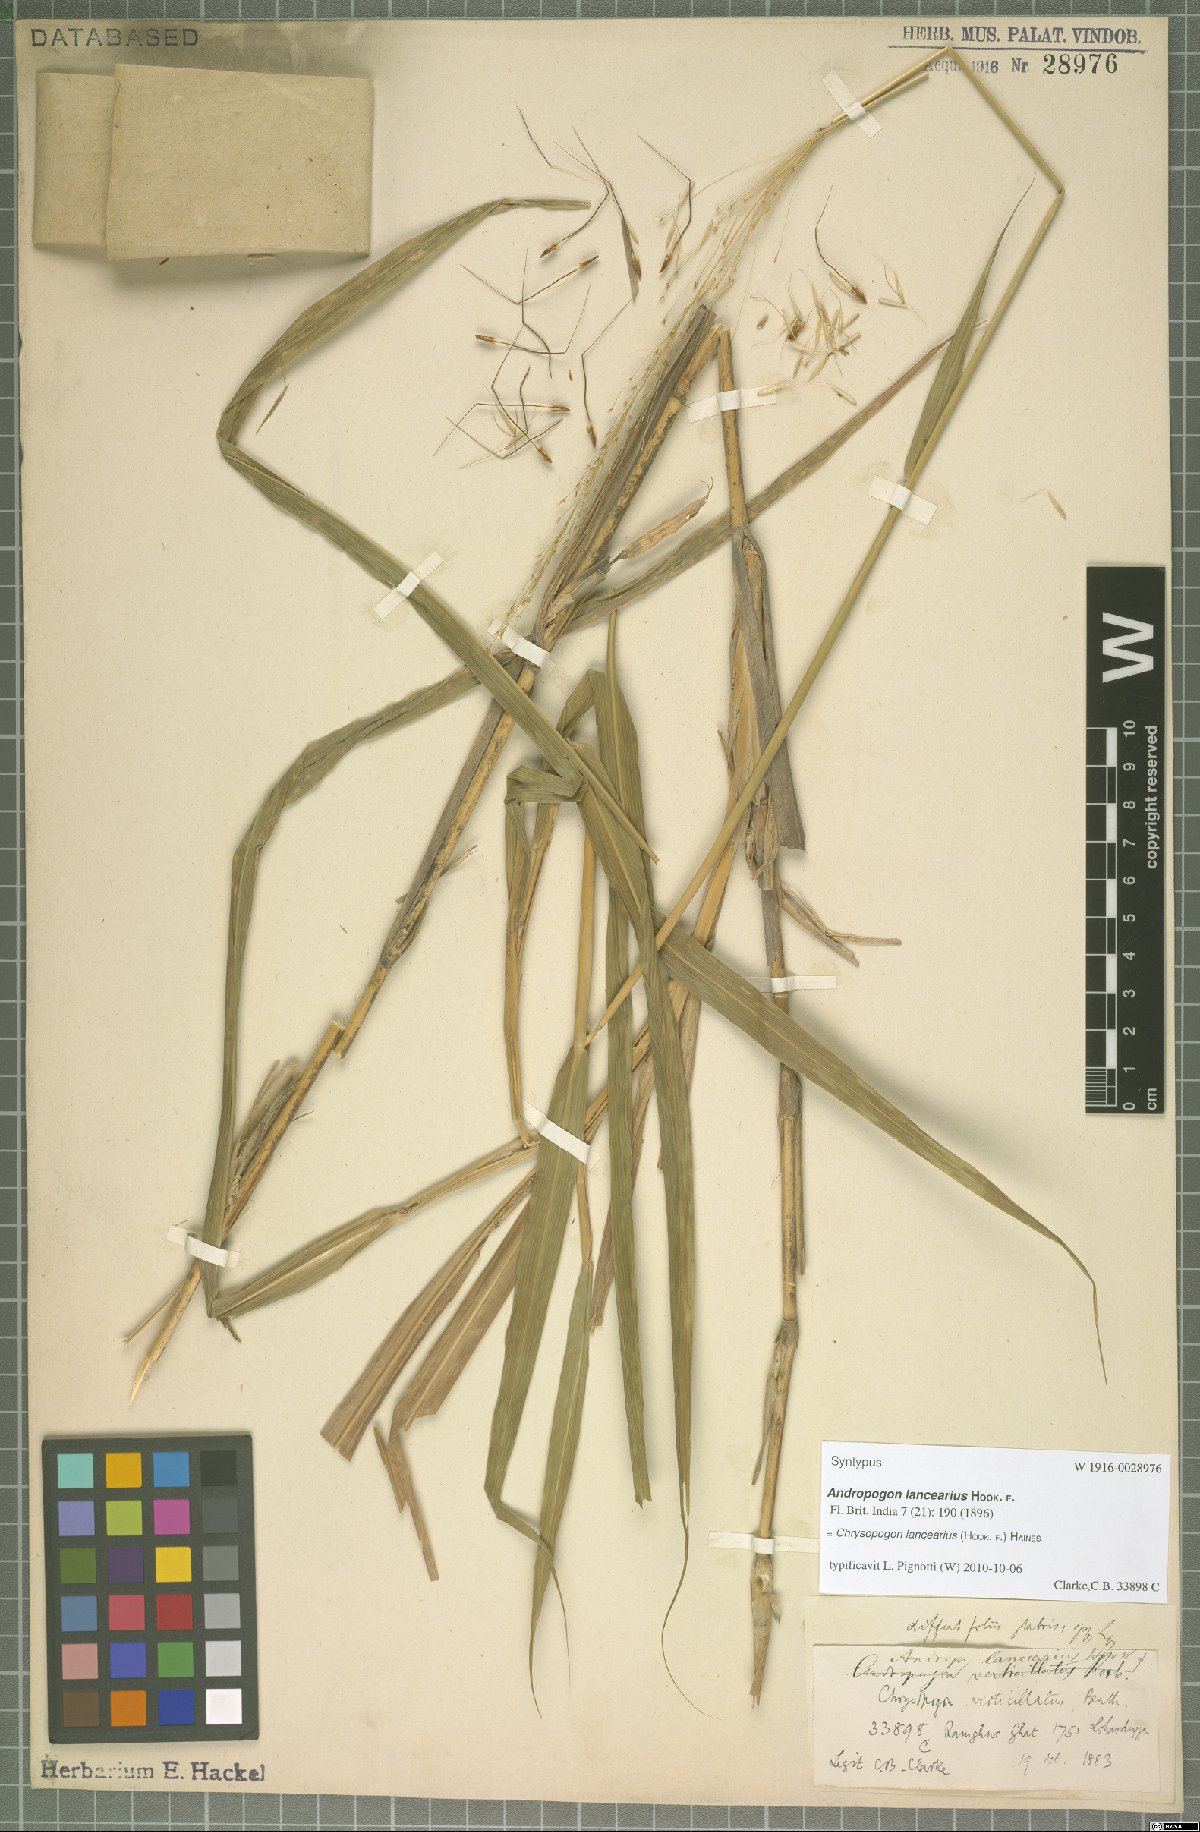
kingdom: Plantae
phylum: Tracheophyta
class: Liliopsida
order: Poales
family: Poaceae
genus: Chrysopogon
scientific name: Chrysopogon lancearius
